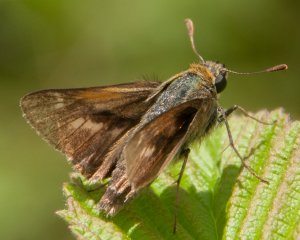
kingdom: Animalia
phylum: Arthropoda
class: Insecta
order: Lepidoptera
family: Hesperiidae
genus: Polites
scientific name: Polites
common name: Crossline Skipper
